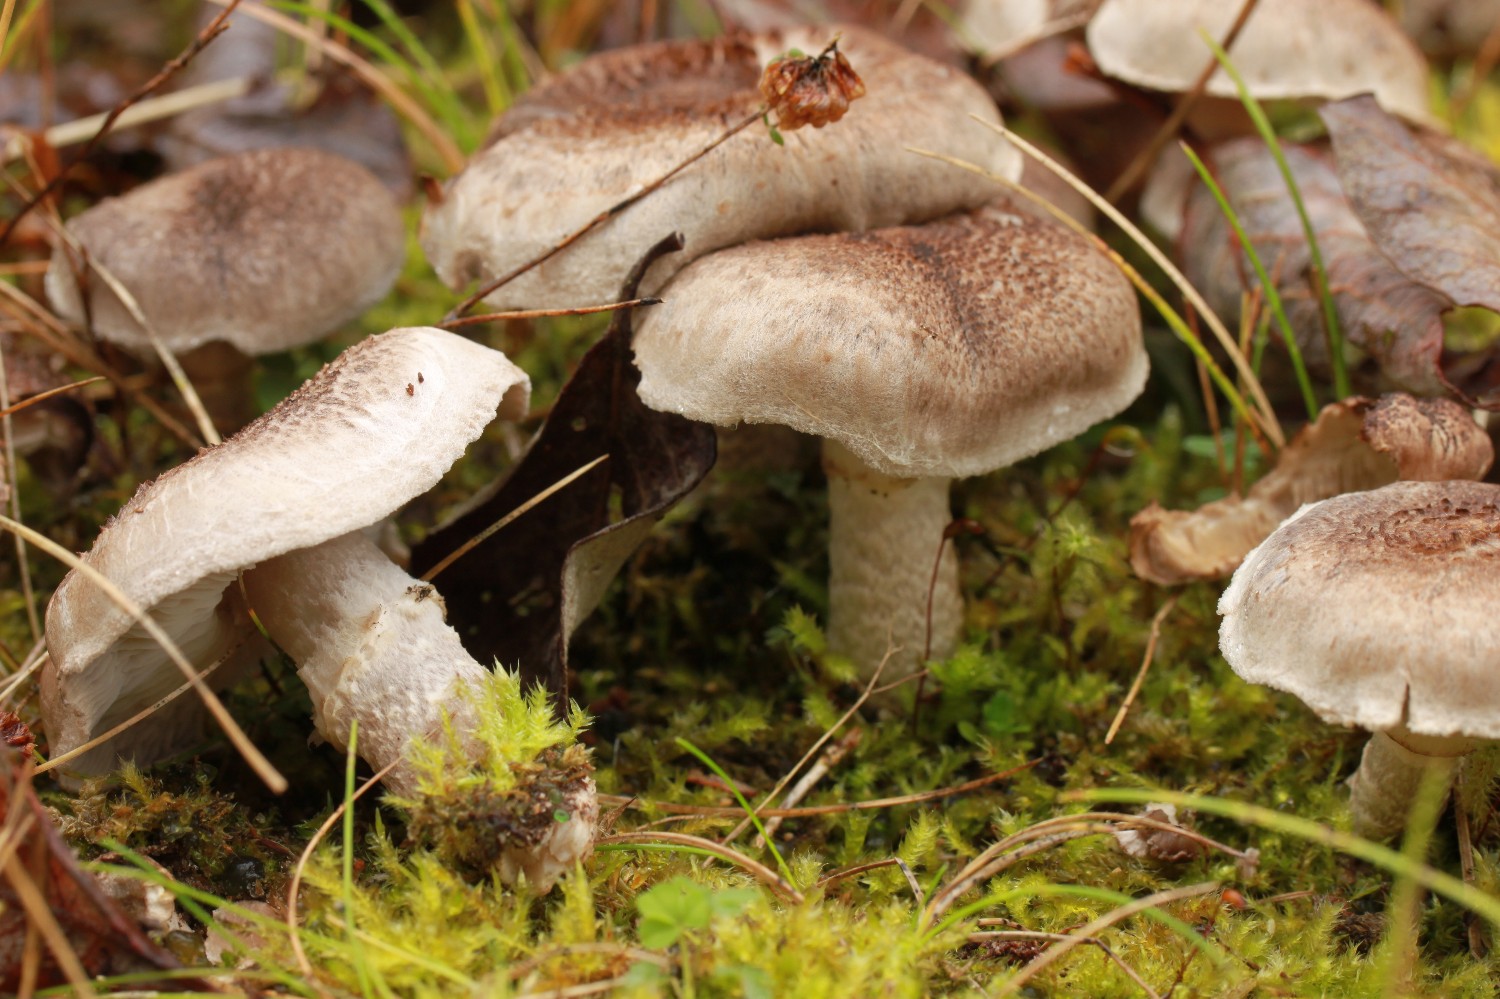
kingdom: Fungi
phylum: Basidiomycota
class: Agaricomycetes
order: Agaricales
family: Tricholomataceae
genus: Tricholoma
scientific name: Tricholoma cingulatum
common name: ring-ridderhat
